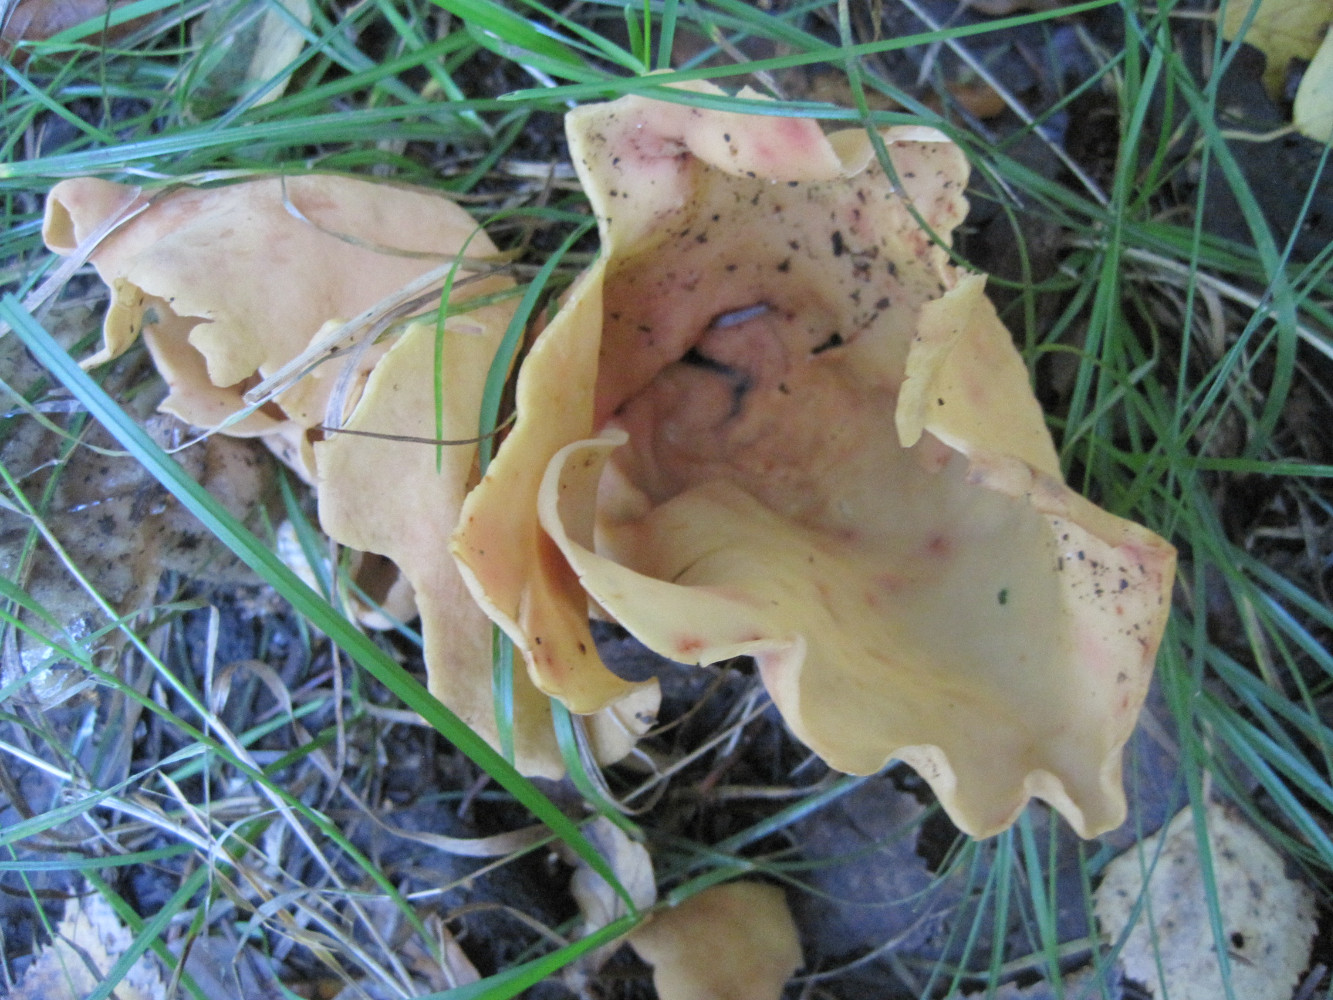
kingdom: Fungi
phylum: Ascomycota
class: Pezizomycetes
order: Pezizales
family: Otideaceae
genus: Otidea
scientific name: Otidea onotica
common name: æsel-ørebæger
